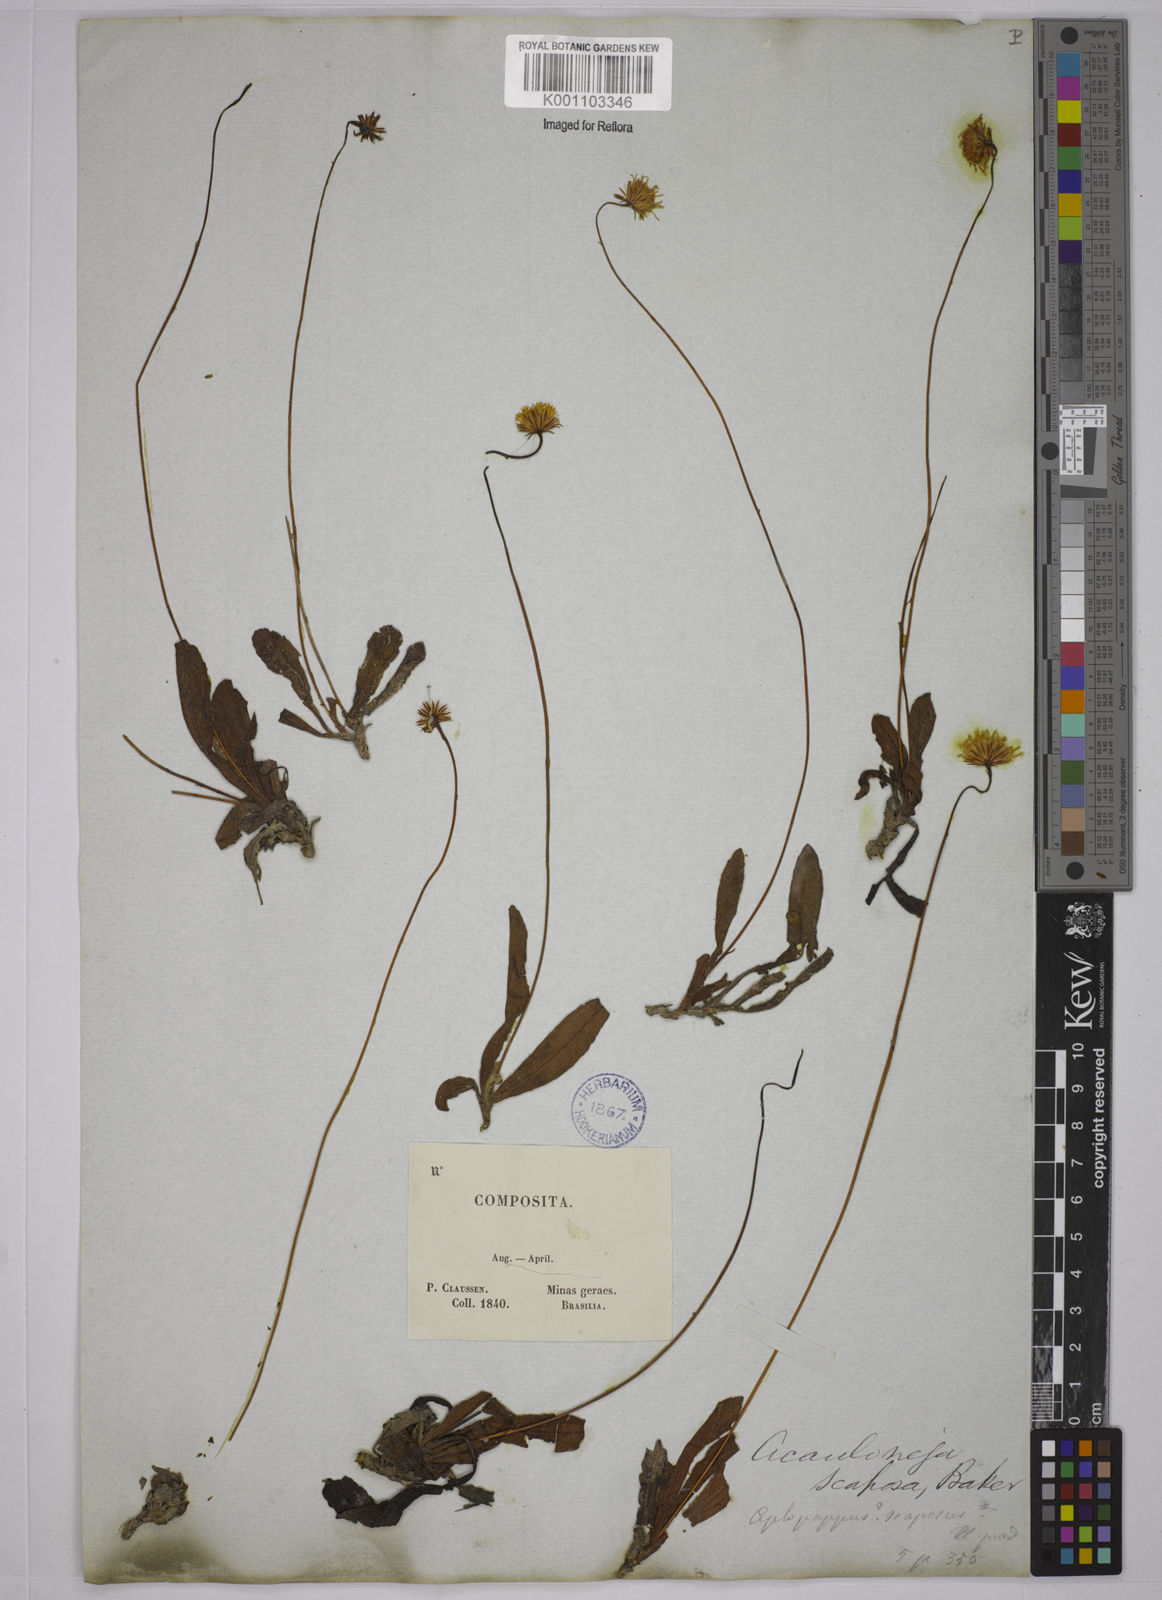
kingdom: Plantae
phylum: Tracheophyta
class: Magnoliopsida
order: Asterales
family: Asteraceae
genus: Inulopsis
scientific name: Inulopsis scaposa
